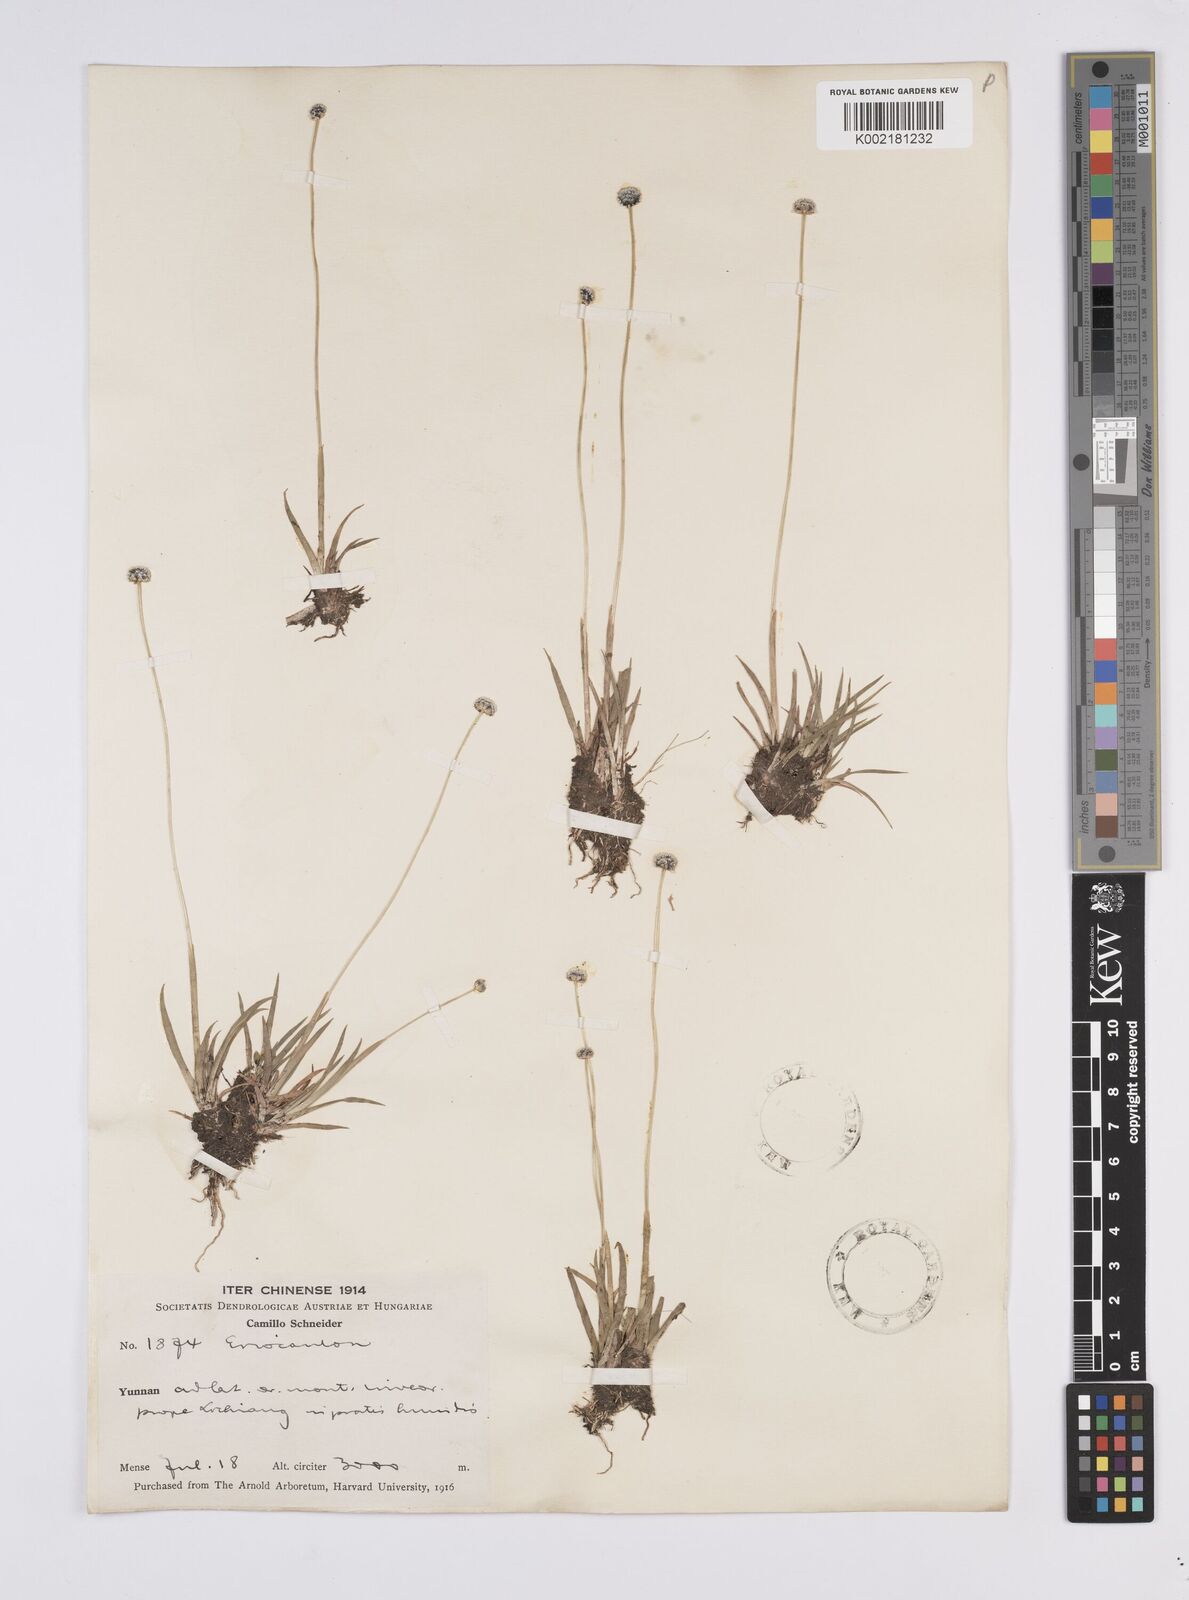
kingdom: Plantae
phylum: Tracheophyta
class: Liliopsida
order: Poales
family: Eriocaulaceae
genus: Eriocaulon
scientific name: Eriocaulon
